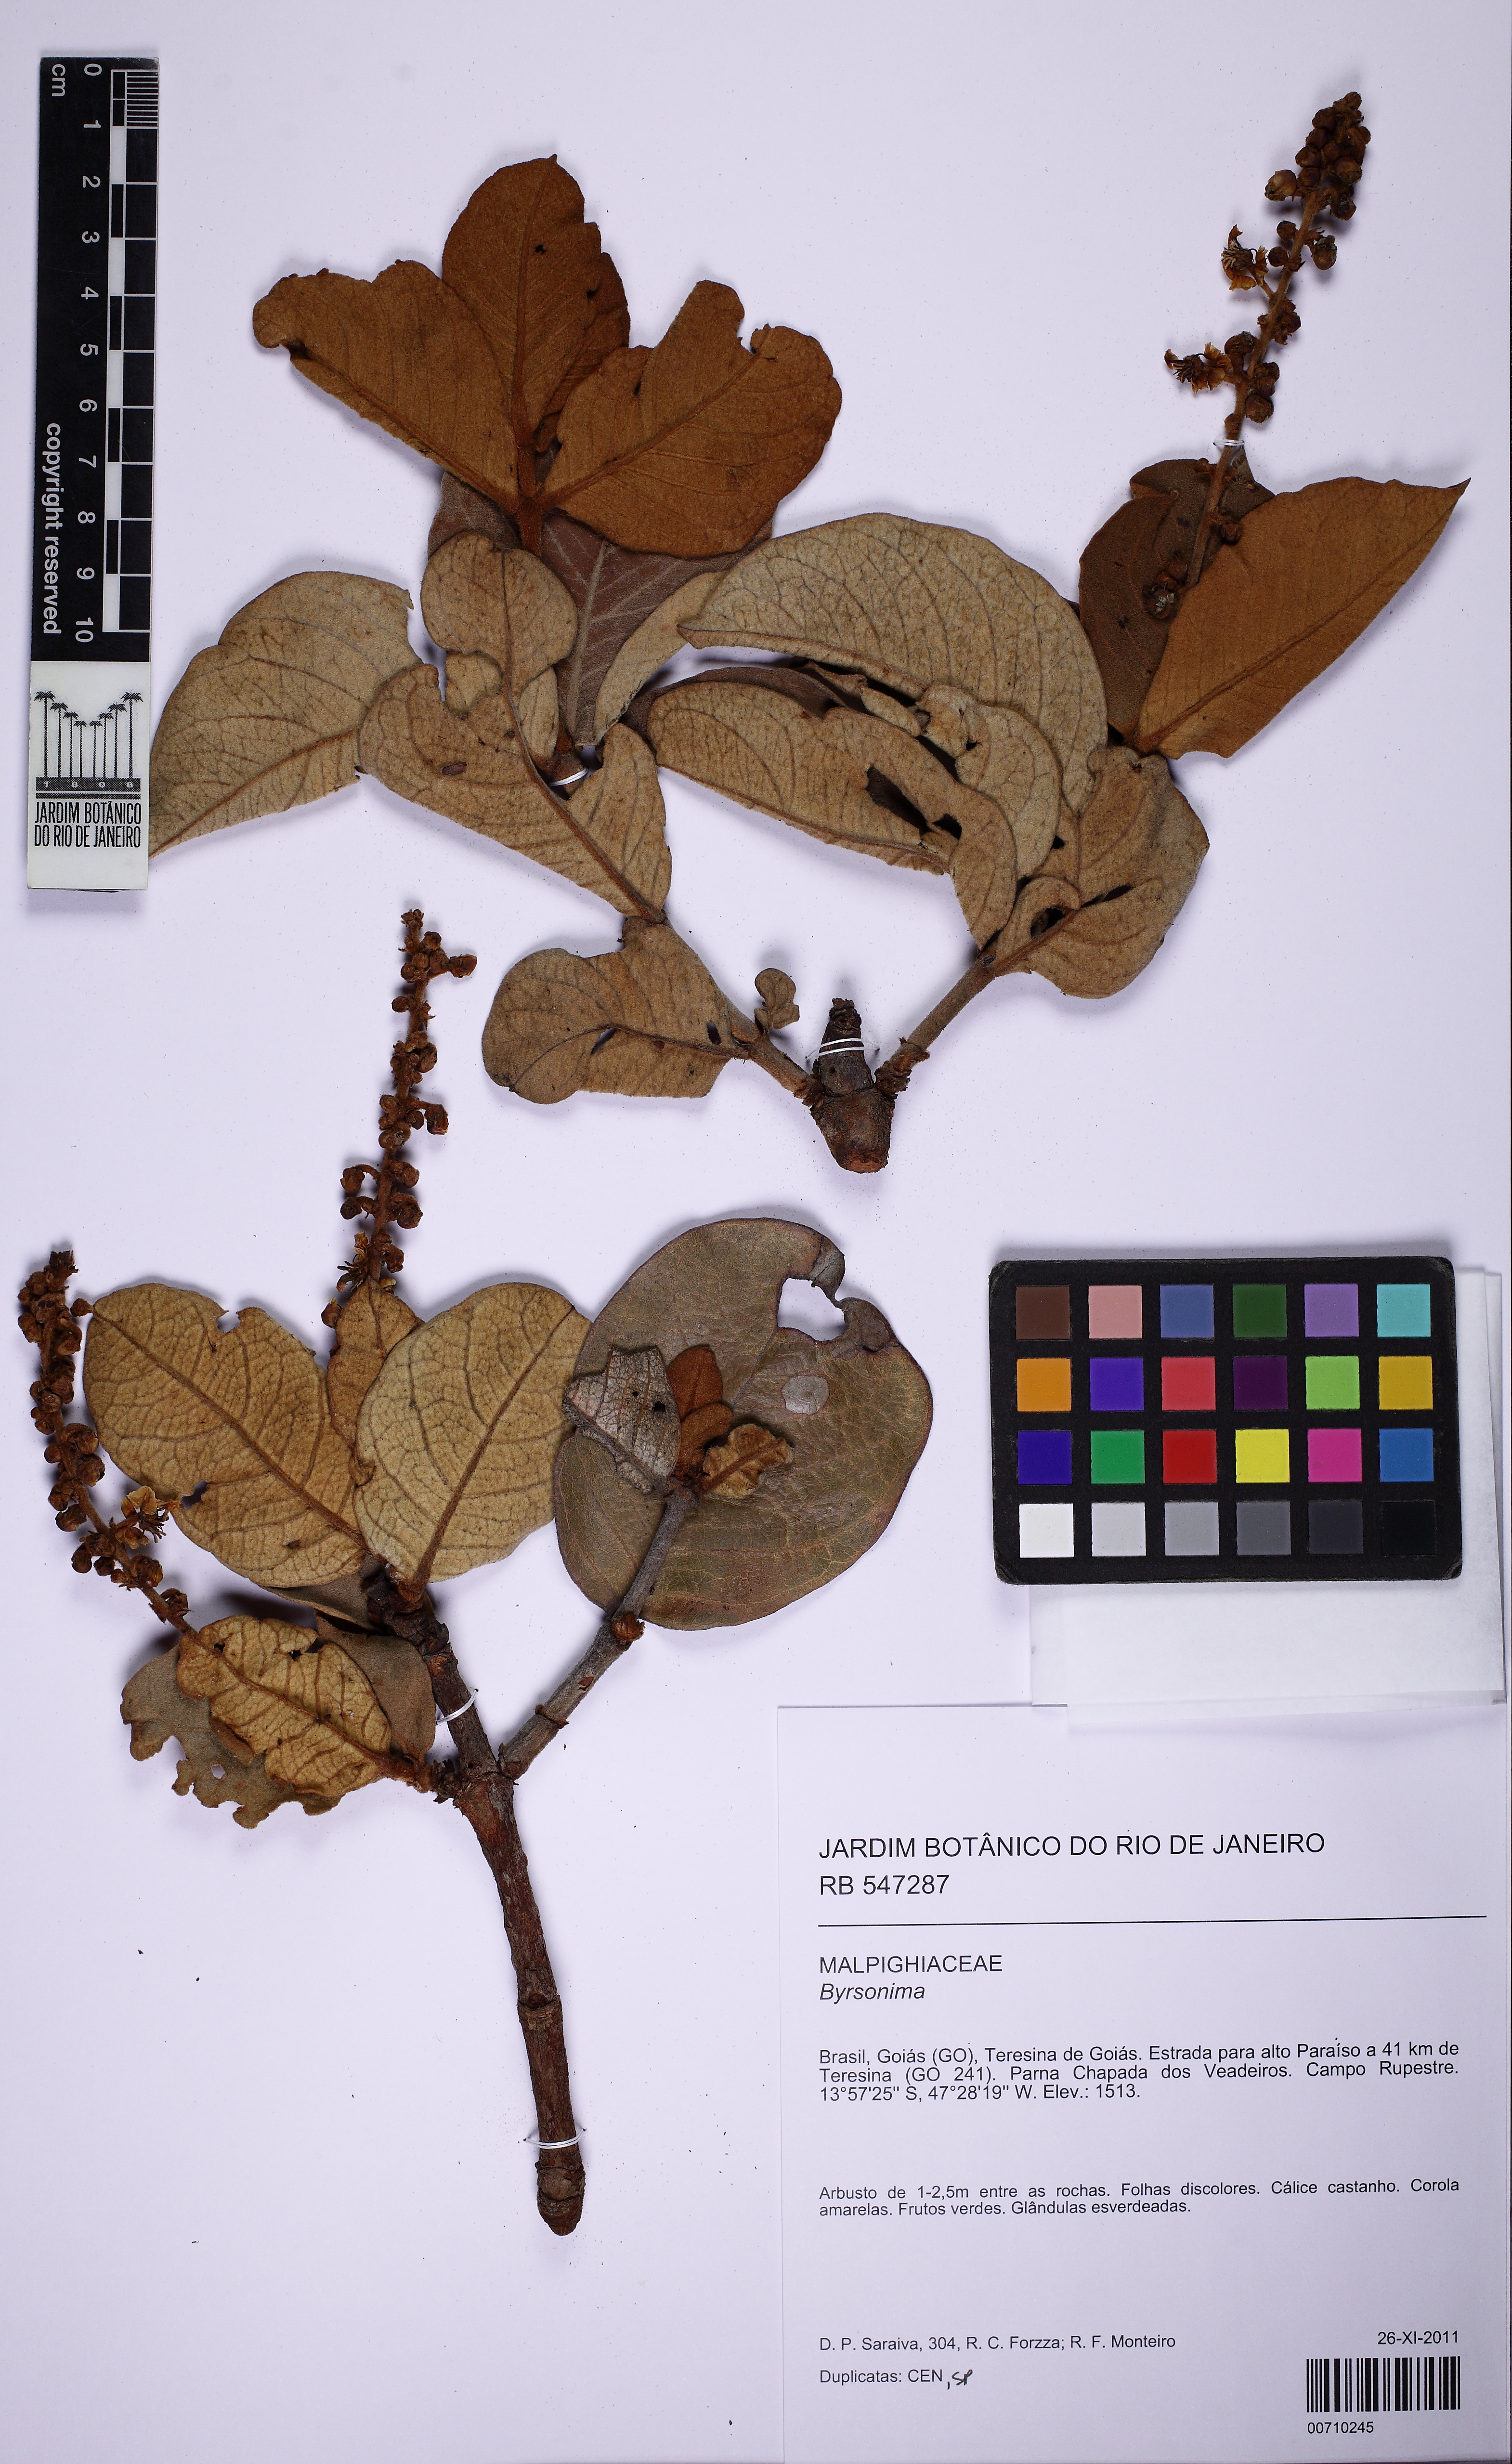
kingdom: Plantae
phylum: Tracheophyta
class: Magnoliopsida
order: Malpighiales
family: Malpighiaceae
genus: Byrsonima
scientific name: Byrsonima pachyphylla
